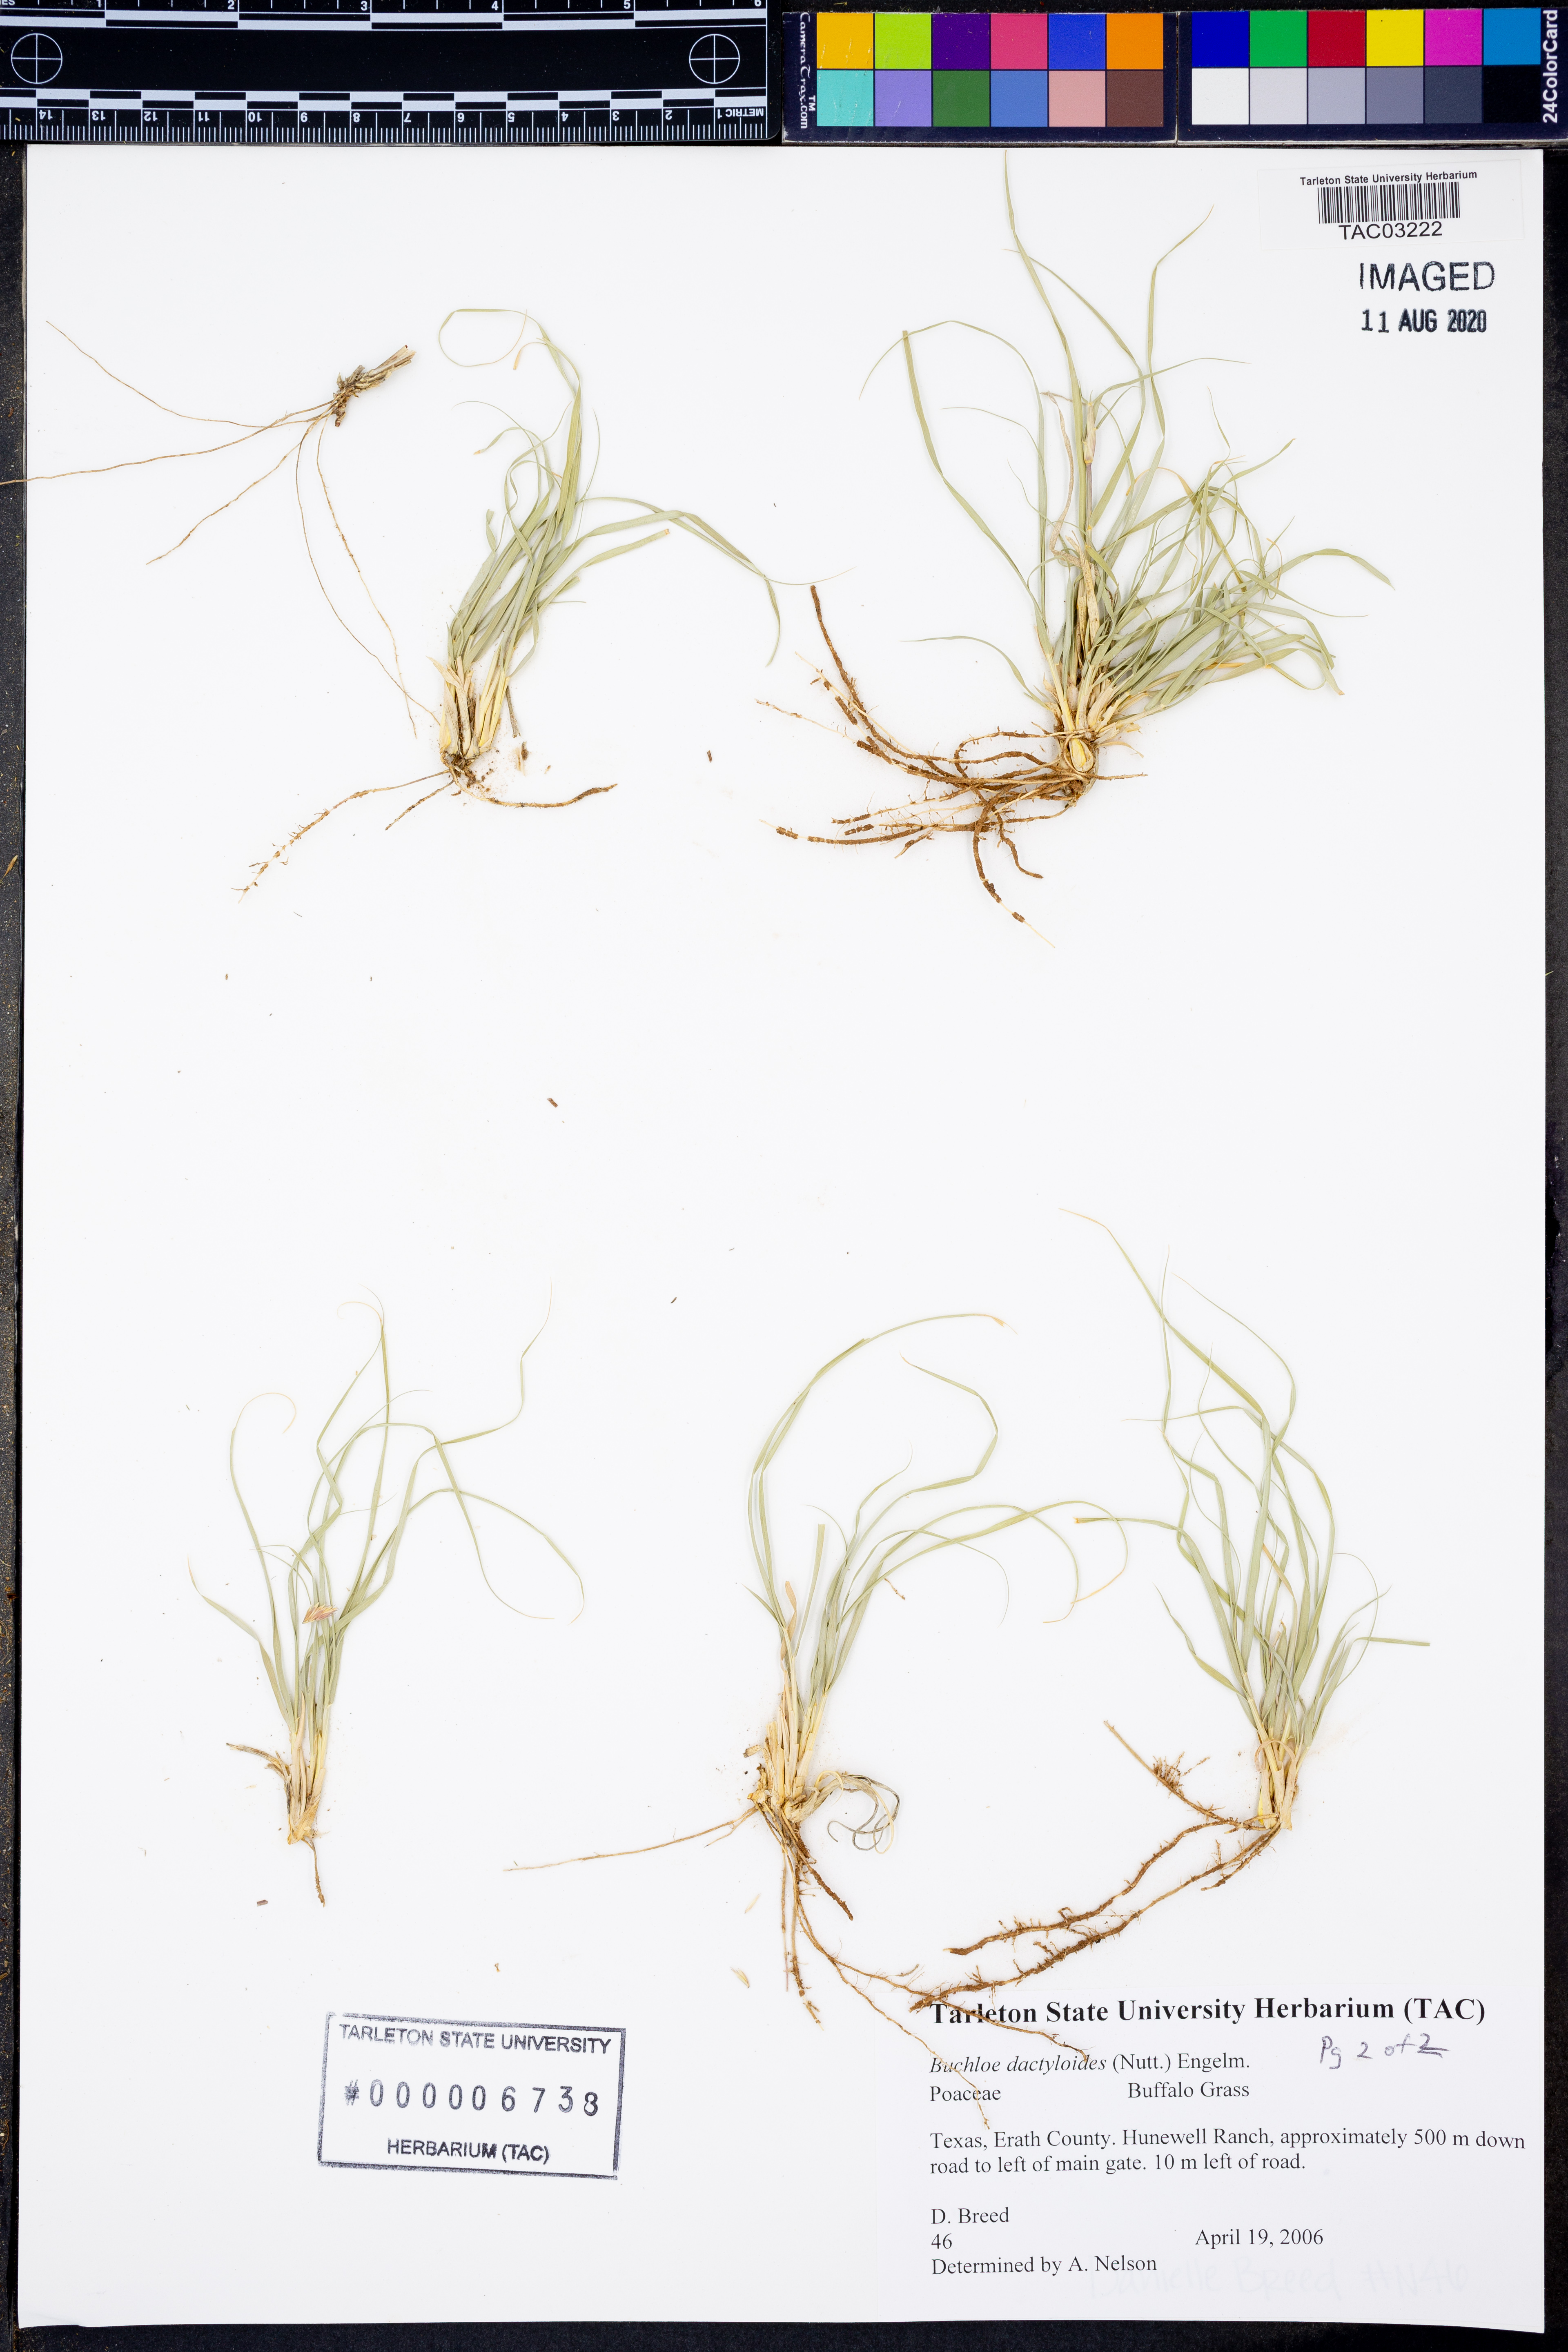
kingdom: Plantae
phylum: Tracheophyta
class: Liliopsida
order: Poales
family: Poaceae
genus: Bouteloua
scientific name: Bouteloua dactyloides
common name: Buffalo grass
